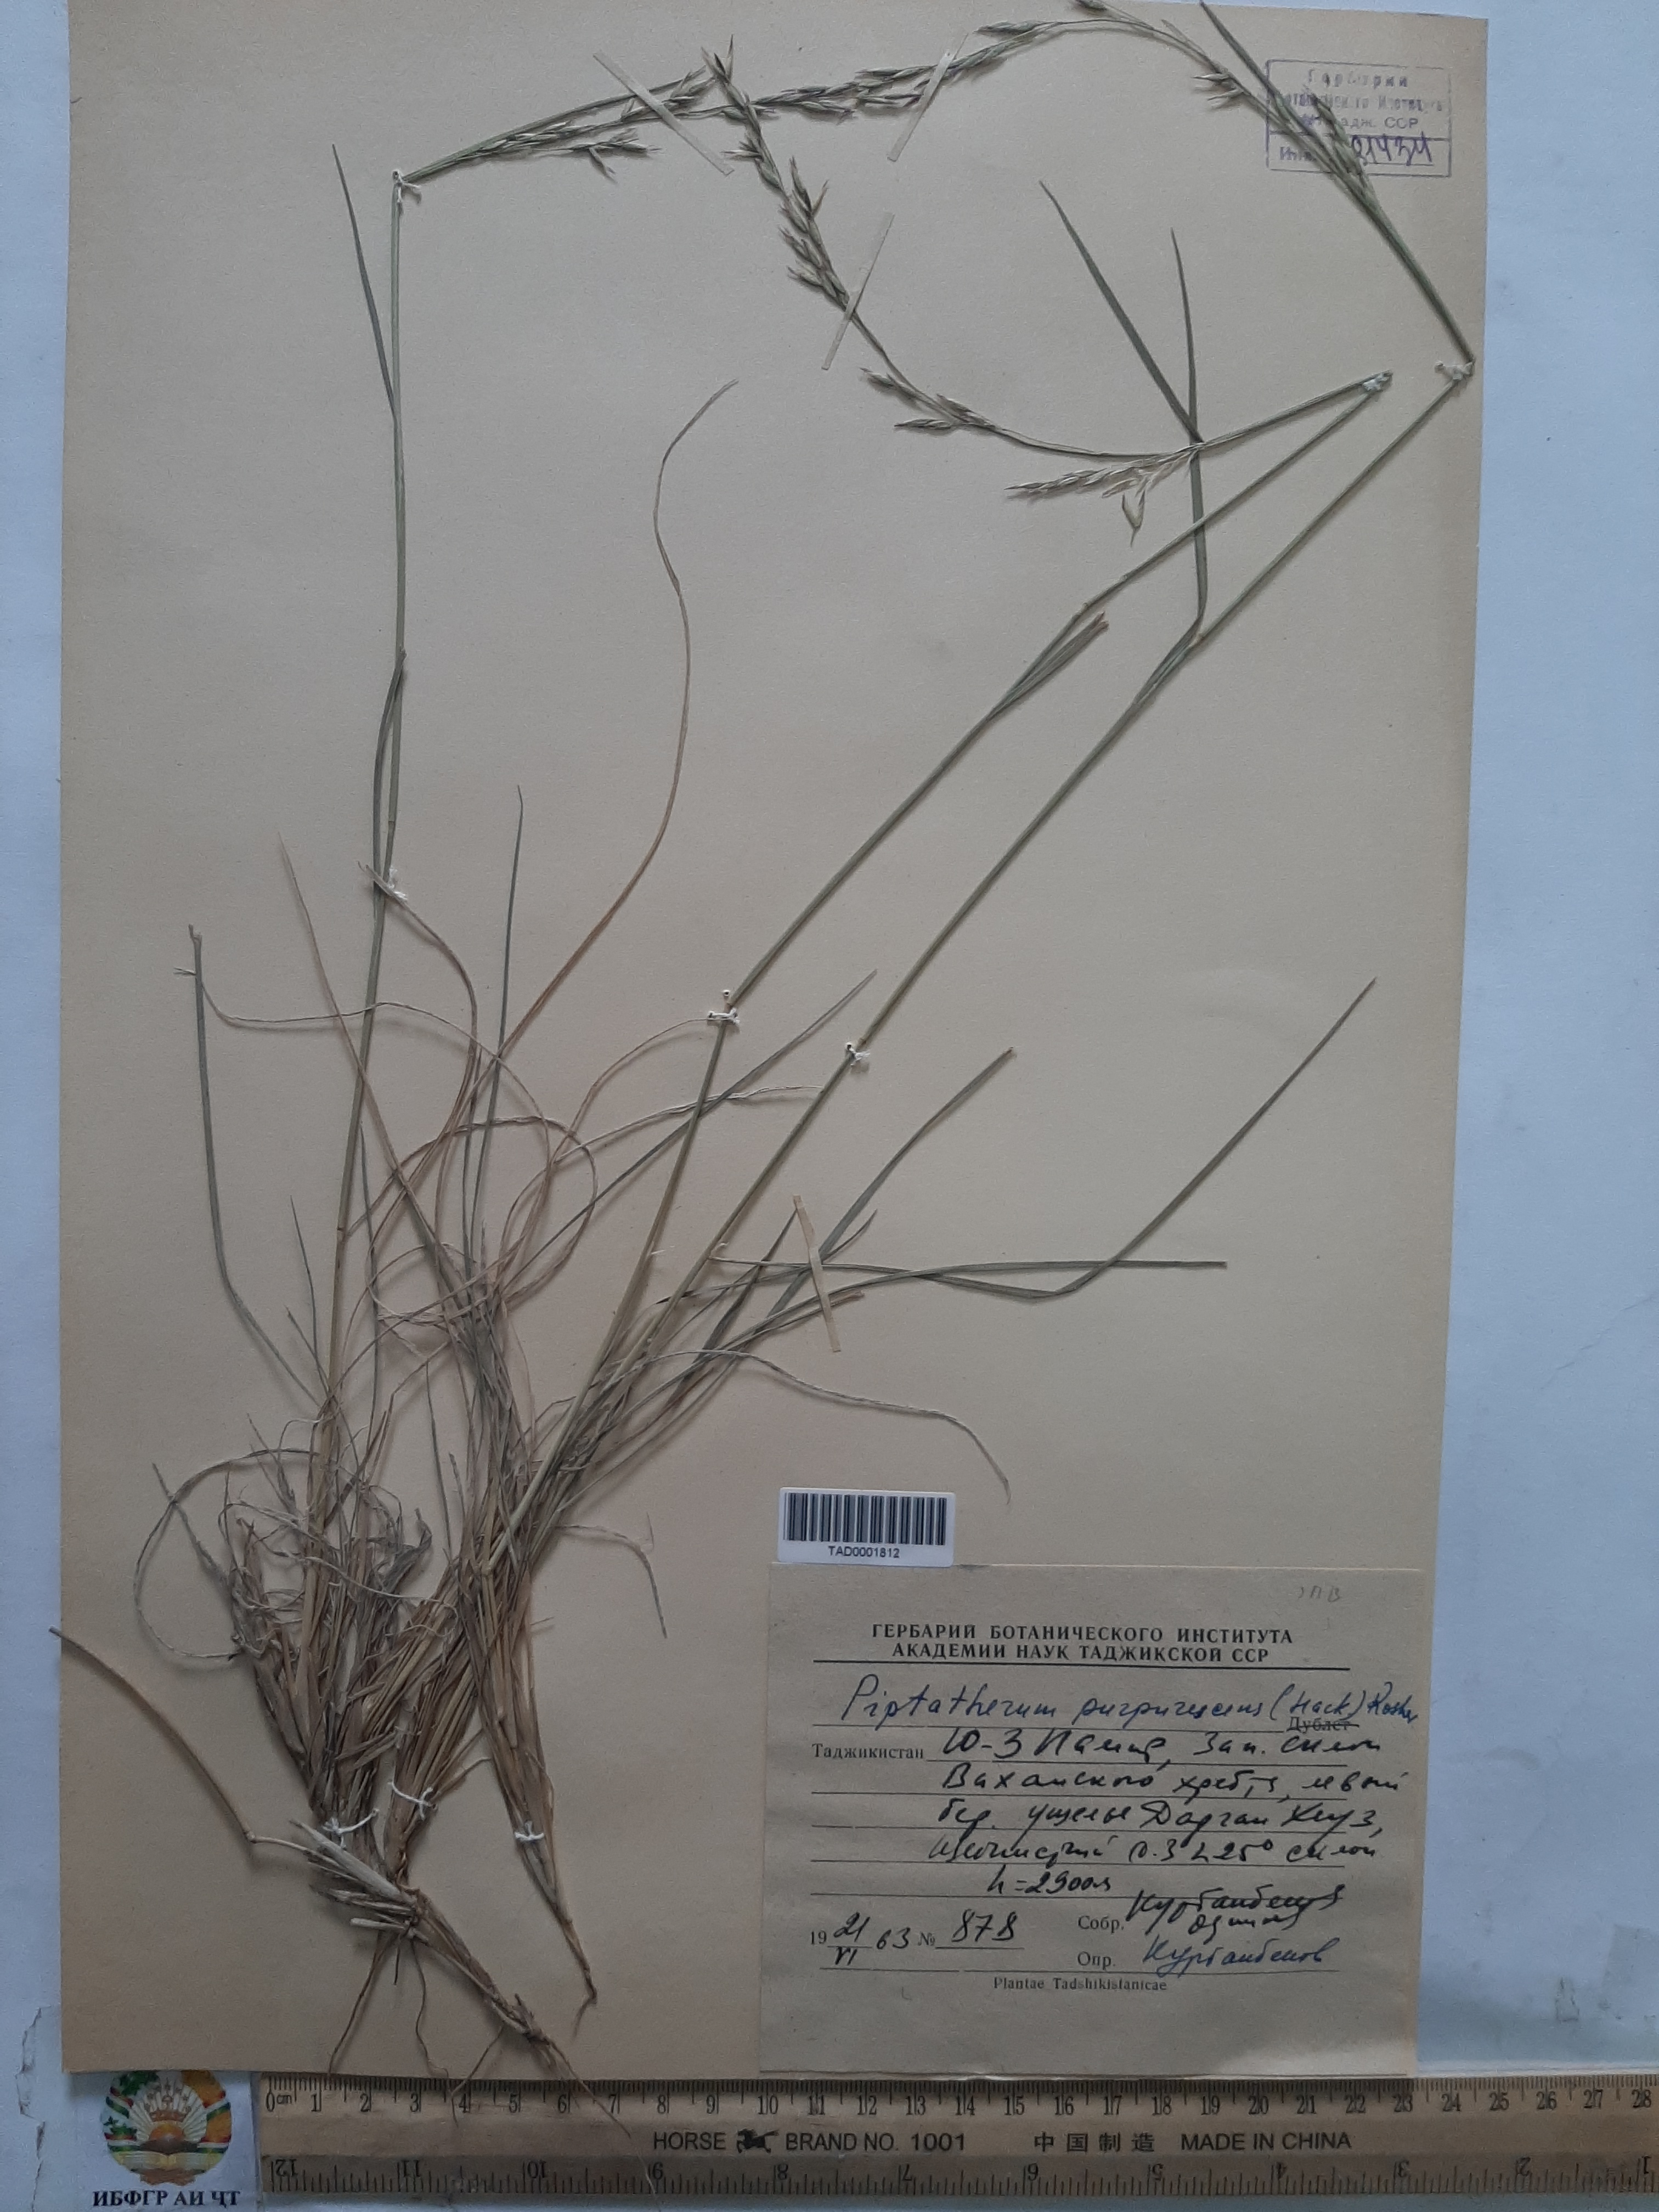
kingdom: Plantae
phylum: Tracheophyta
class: Liliopsida
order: Poales
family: Poaceae
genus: Piptatherum
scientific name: Piptatherum purpurascens
